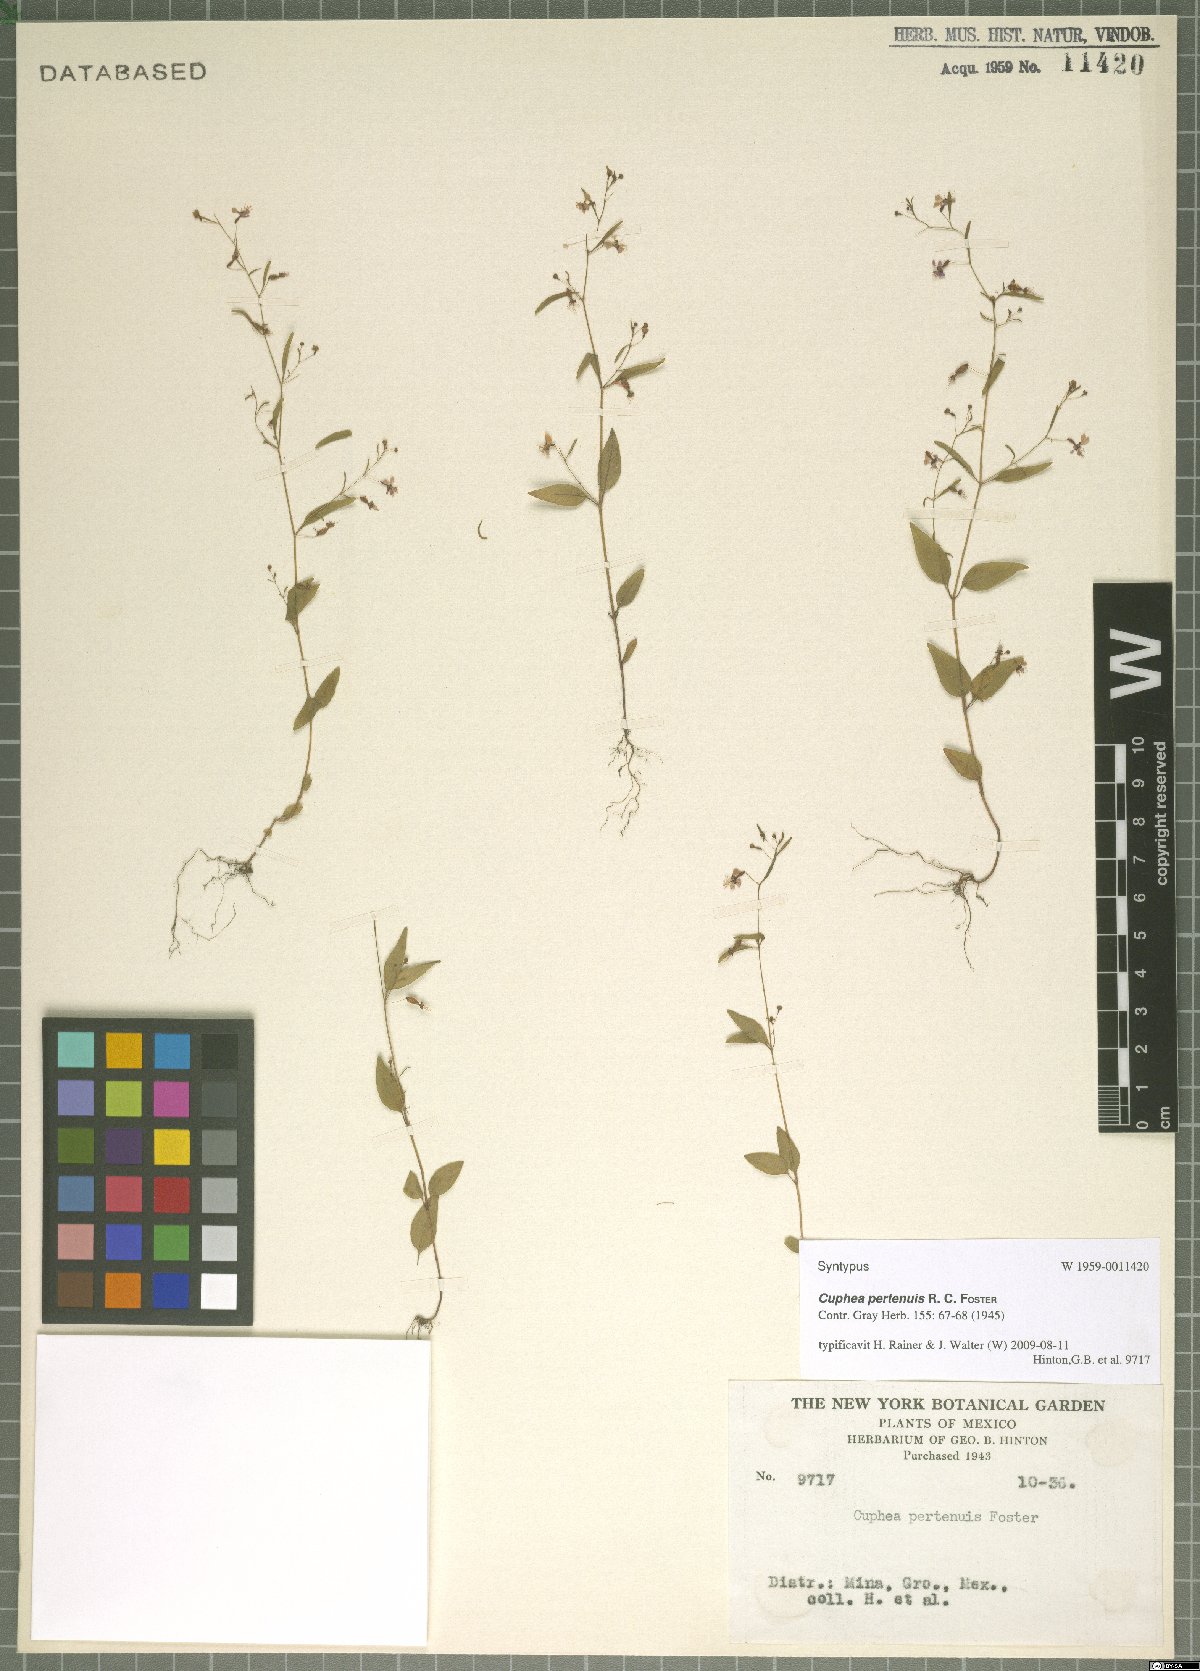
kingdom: Plantae
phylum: Tracheophyta
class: Magnoliopsida
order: Myrtales
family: Lythraceae
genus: Cuphea
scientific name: Cuphea pertenuis
